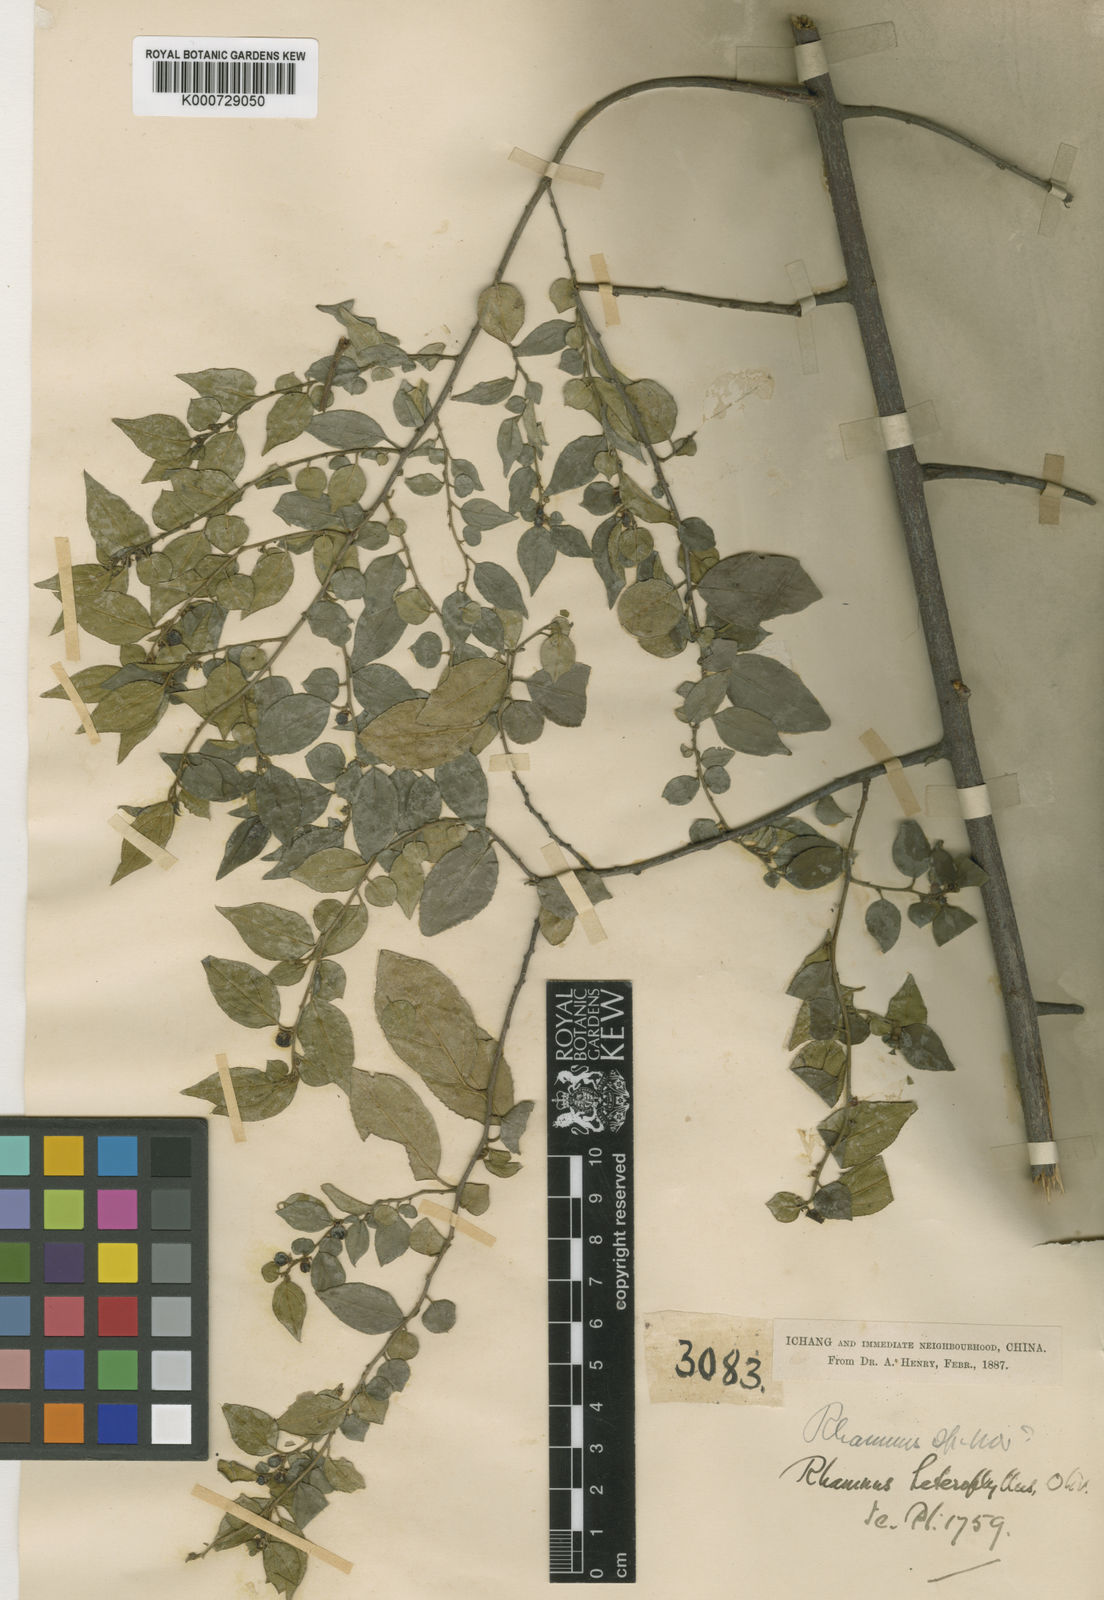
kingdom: Plantae
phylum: Tracheophyta
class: Magnoliopsida
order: Rosales
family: Rhamnaceae
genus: Rhamnus
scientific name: Rhamnus heterophylla
